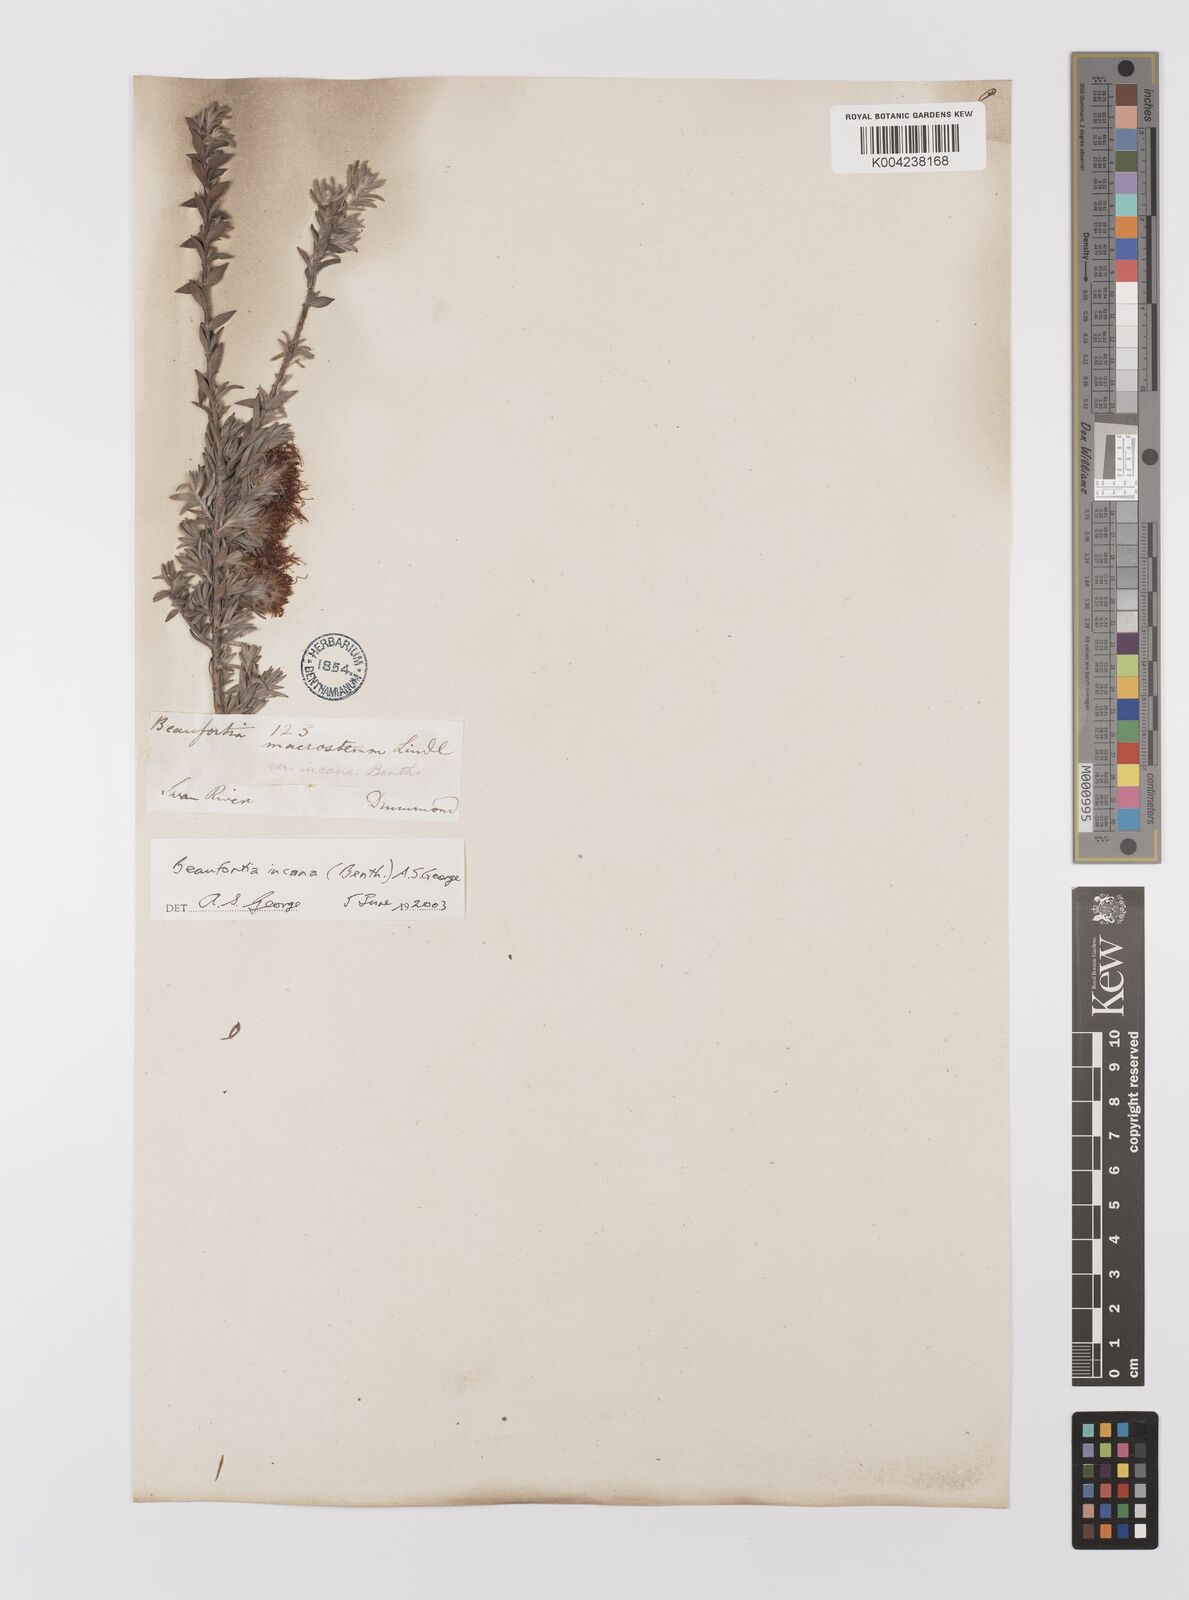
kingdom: Plantae
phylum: Tracheophyta
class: Magnoliopsida
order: Myrtales
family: Myrtaceae
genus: Melaleuca
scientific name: Melaleuca cinerea
